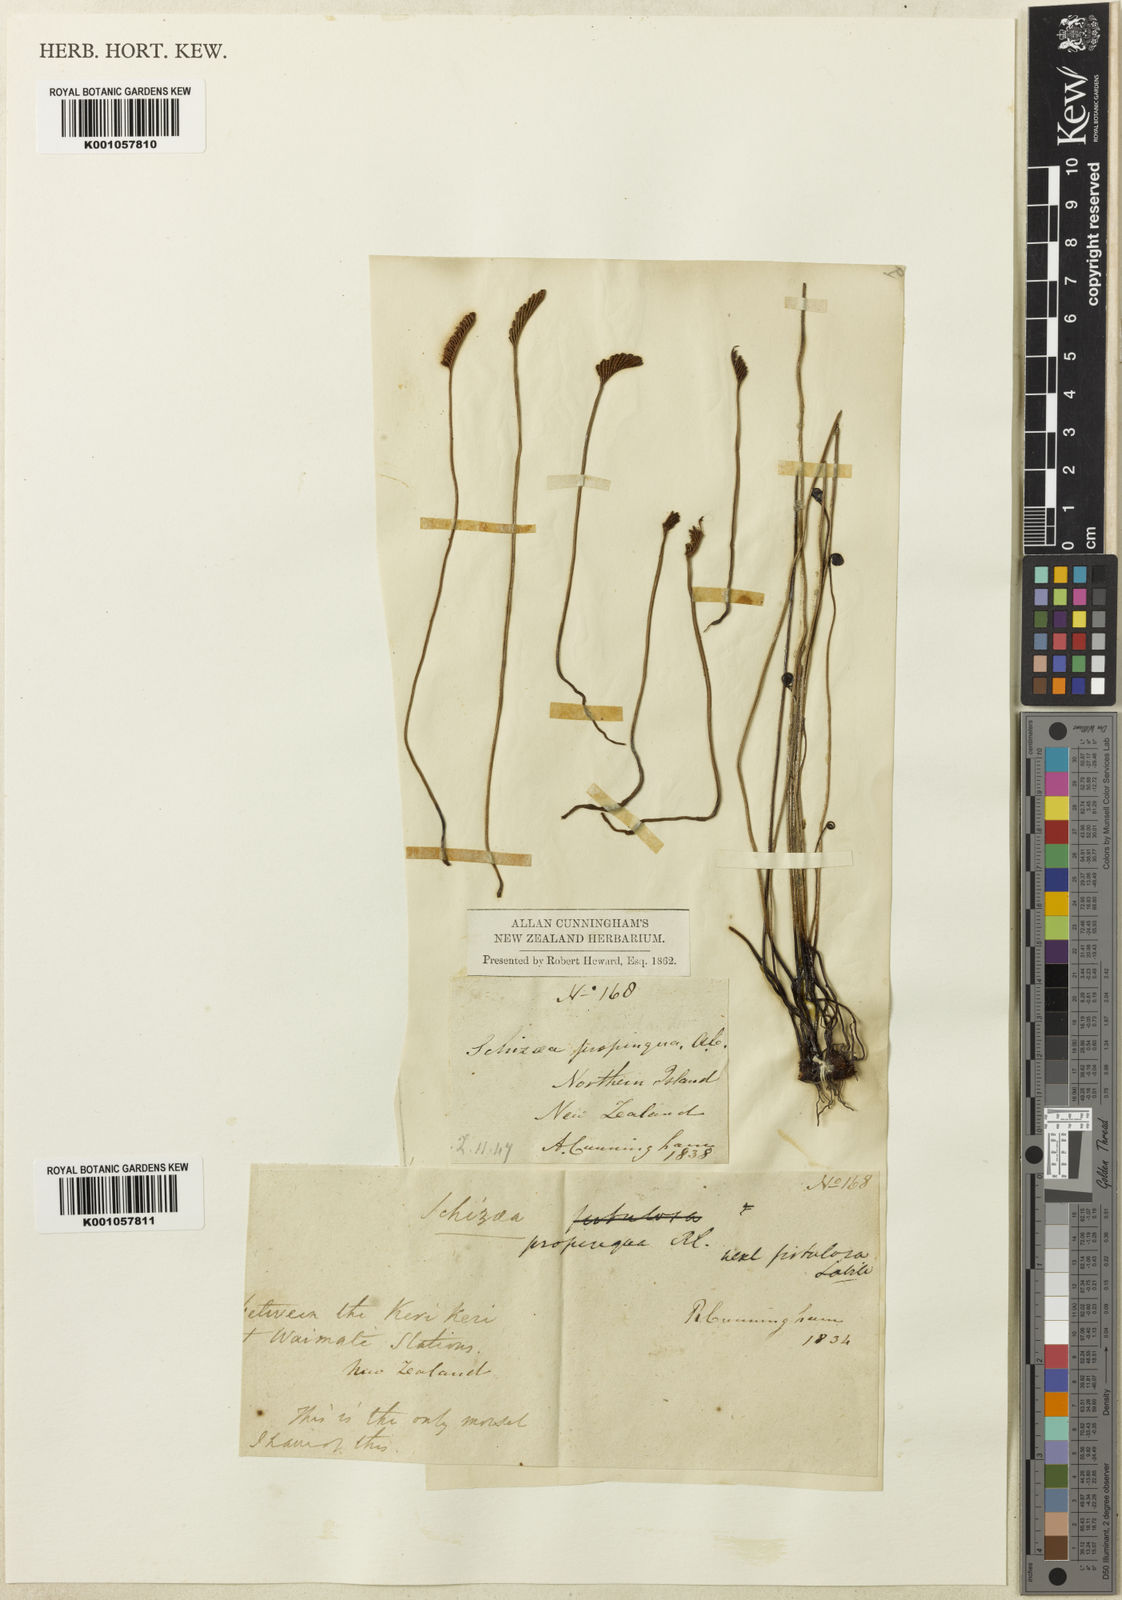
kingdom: Plantae
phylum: Tracheophyta
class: Polypodiopsida
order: Schizaeales
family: Schizaeaceae
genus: Microschizaea
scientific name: Microschizaea fistulosa
